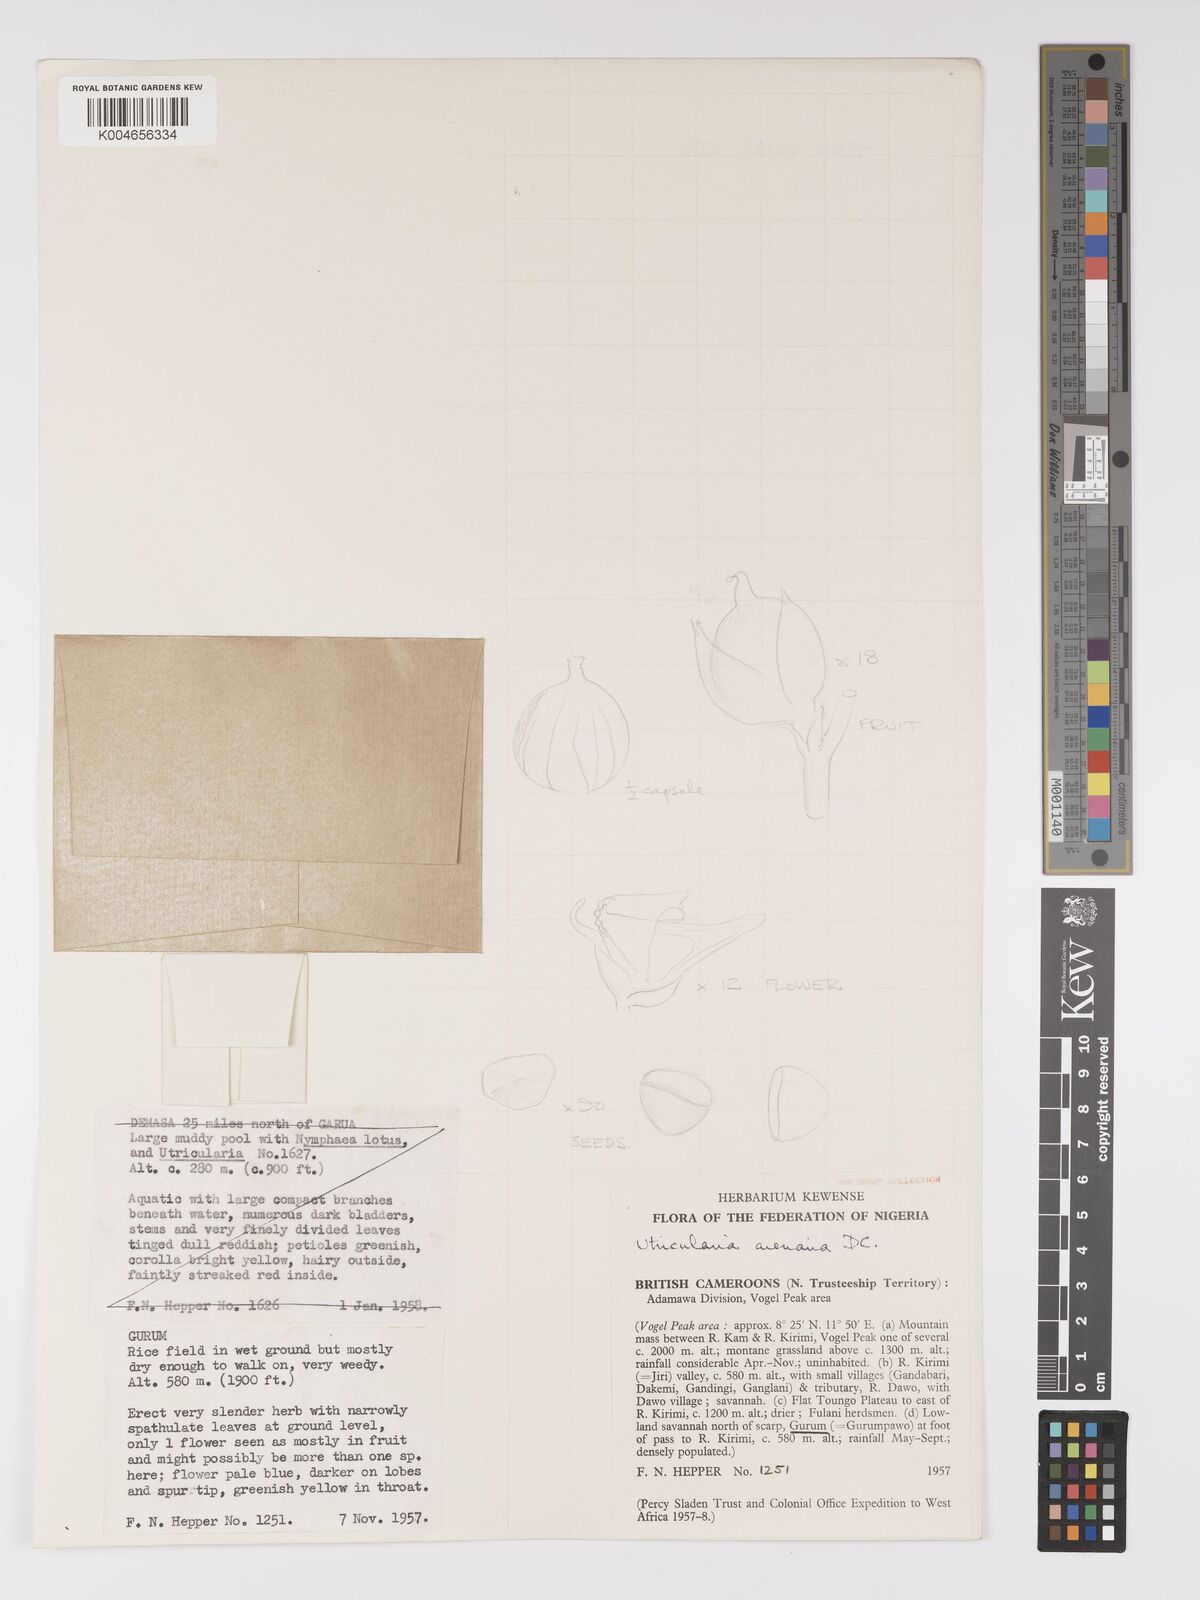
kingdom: Plantae
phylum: Tracheophyta
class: Magnoliopsida
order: Lamiales
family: Lentibulariaceae
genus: Utricularia
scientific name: Utricularia arenaria
